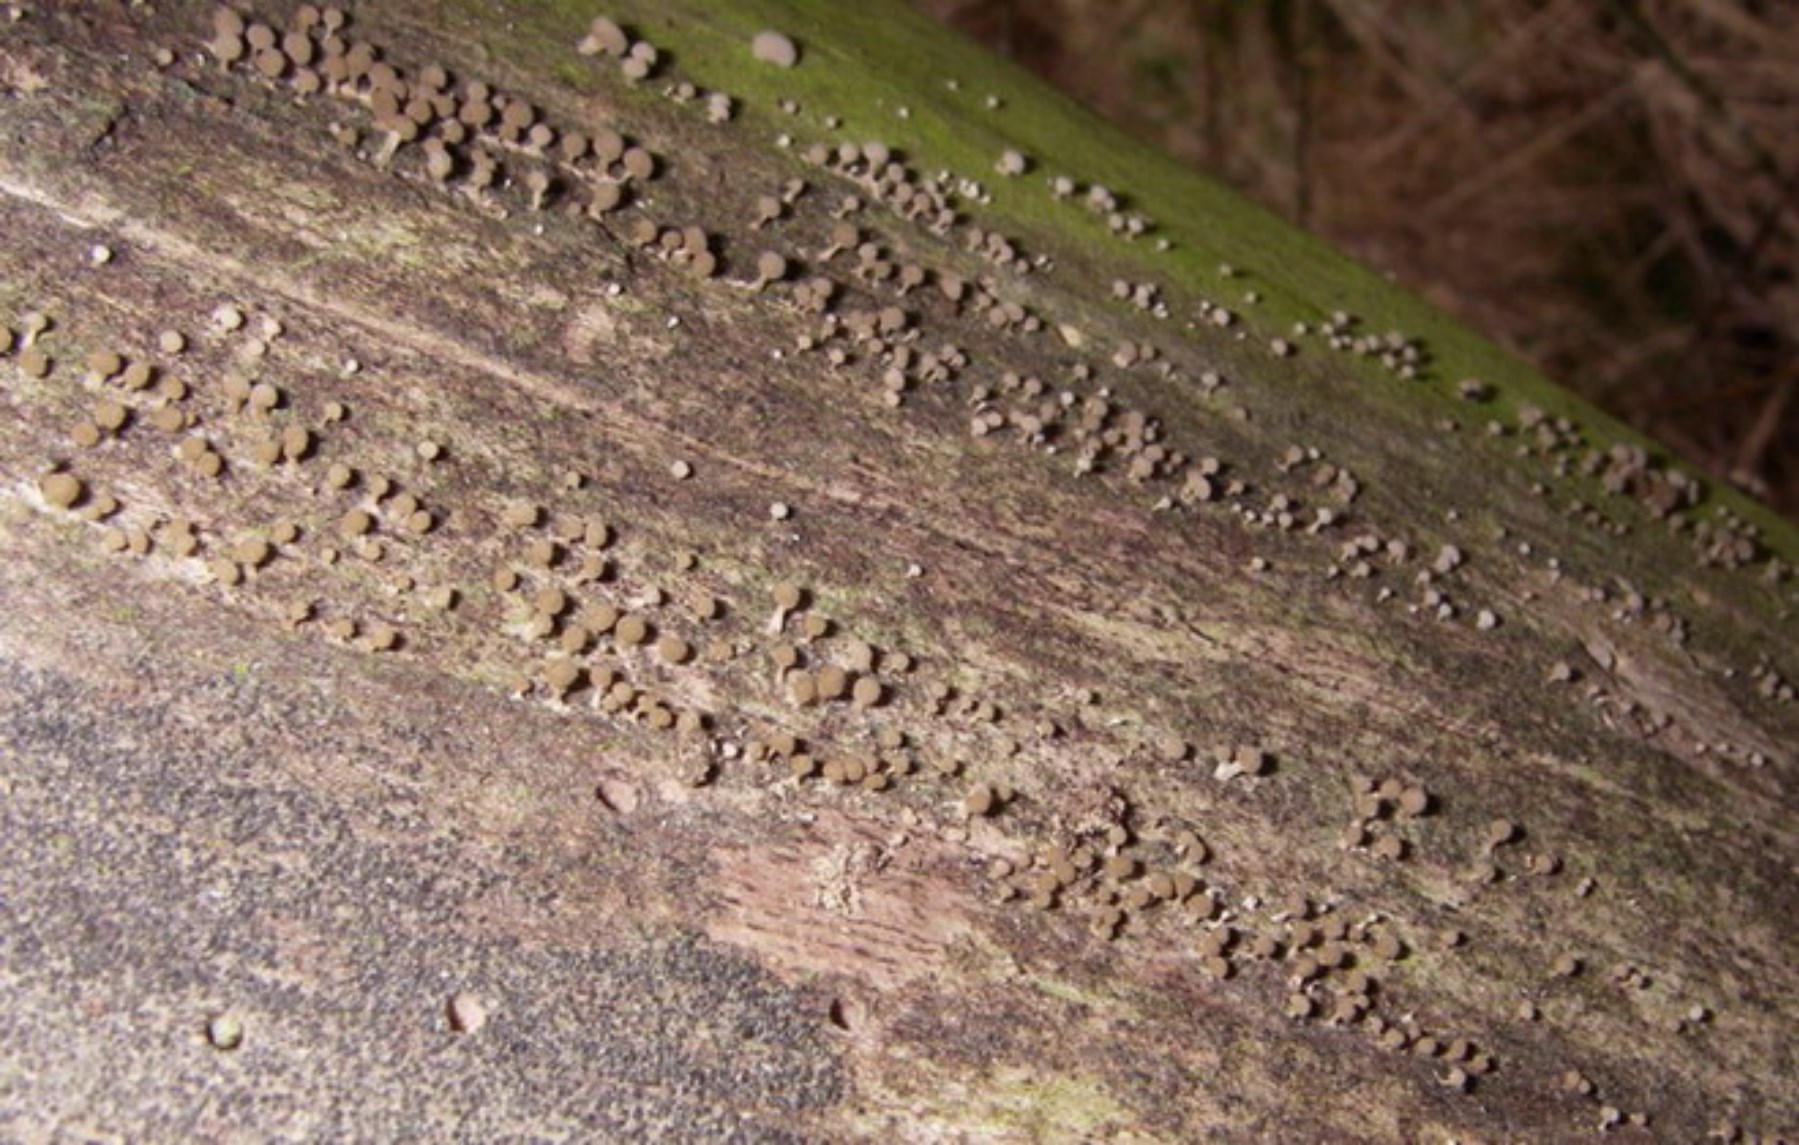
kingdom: Fungi
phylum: Basidiomycota
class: Atractiellomycetes
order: Atractiellales
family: Phleogenaceae
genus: Phleogena
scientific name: Phleogena faginea
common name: pudderkølle
